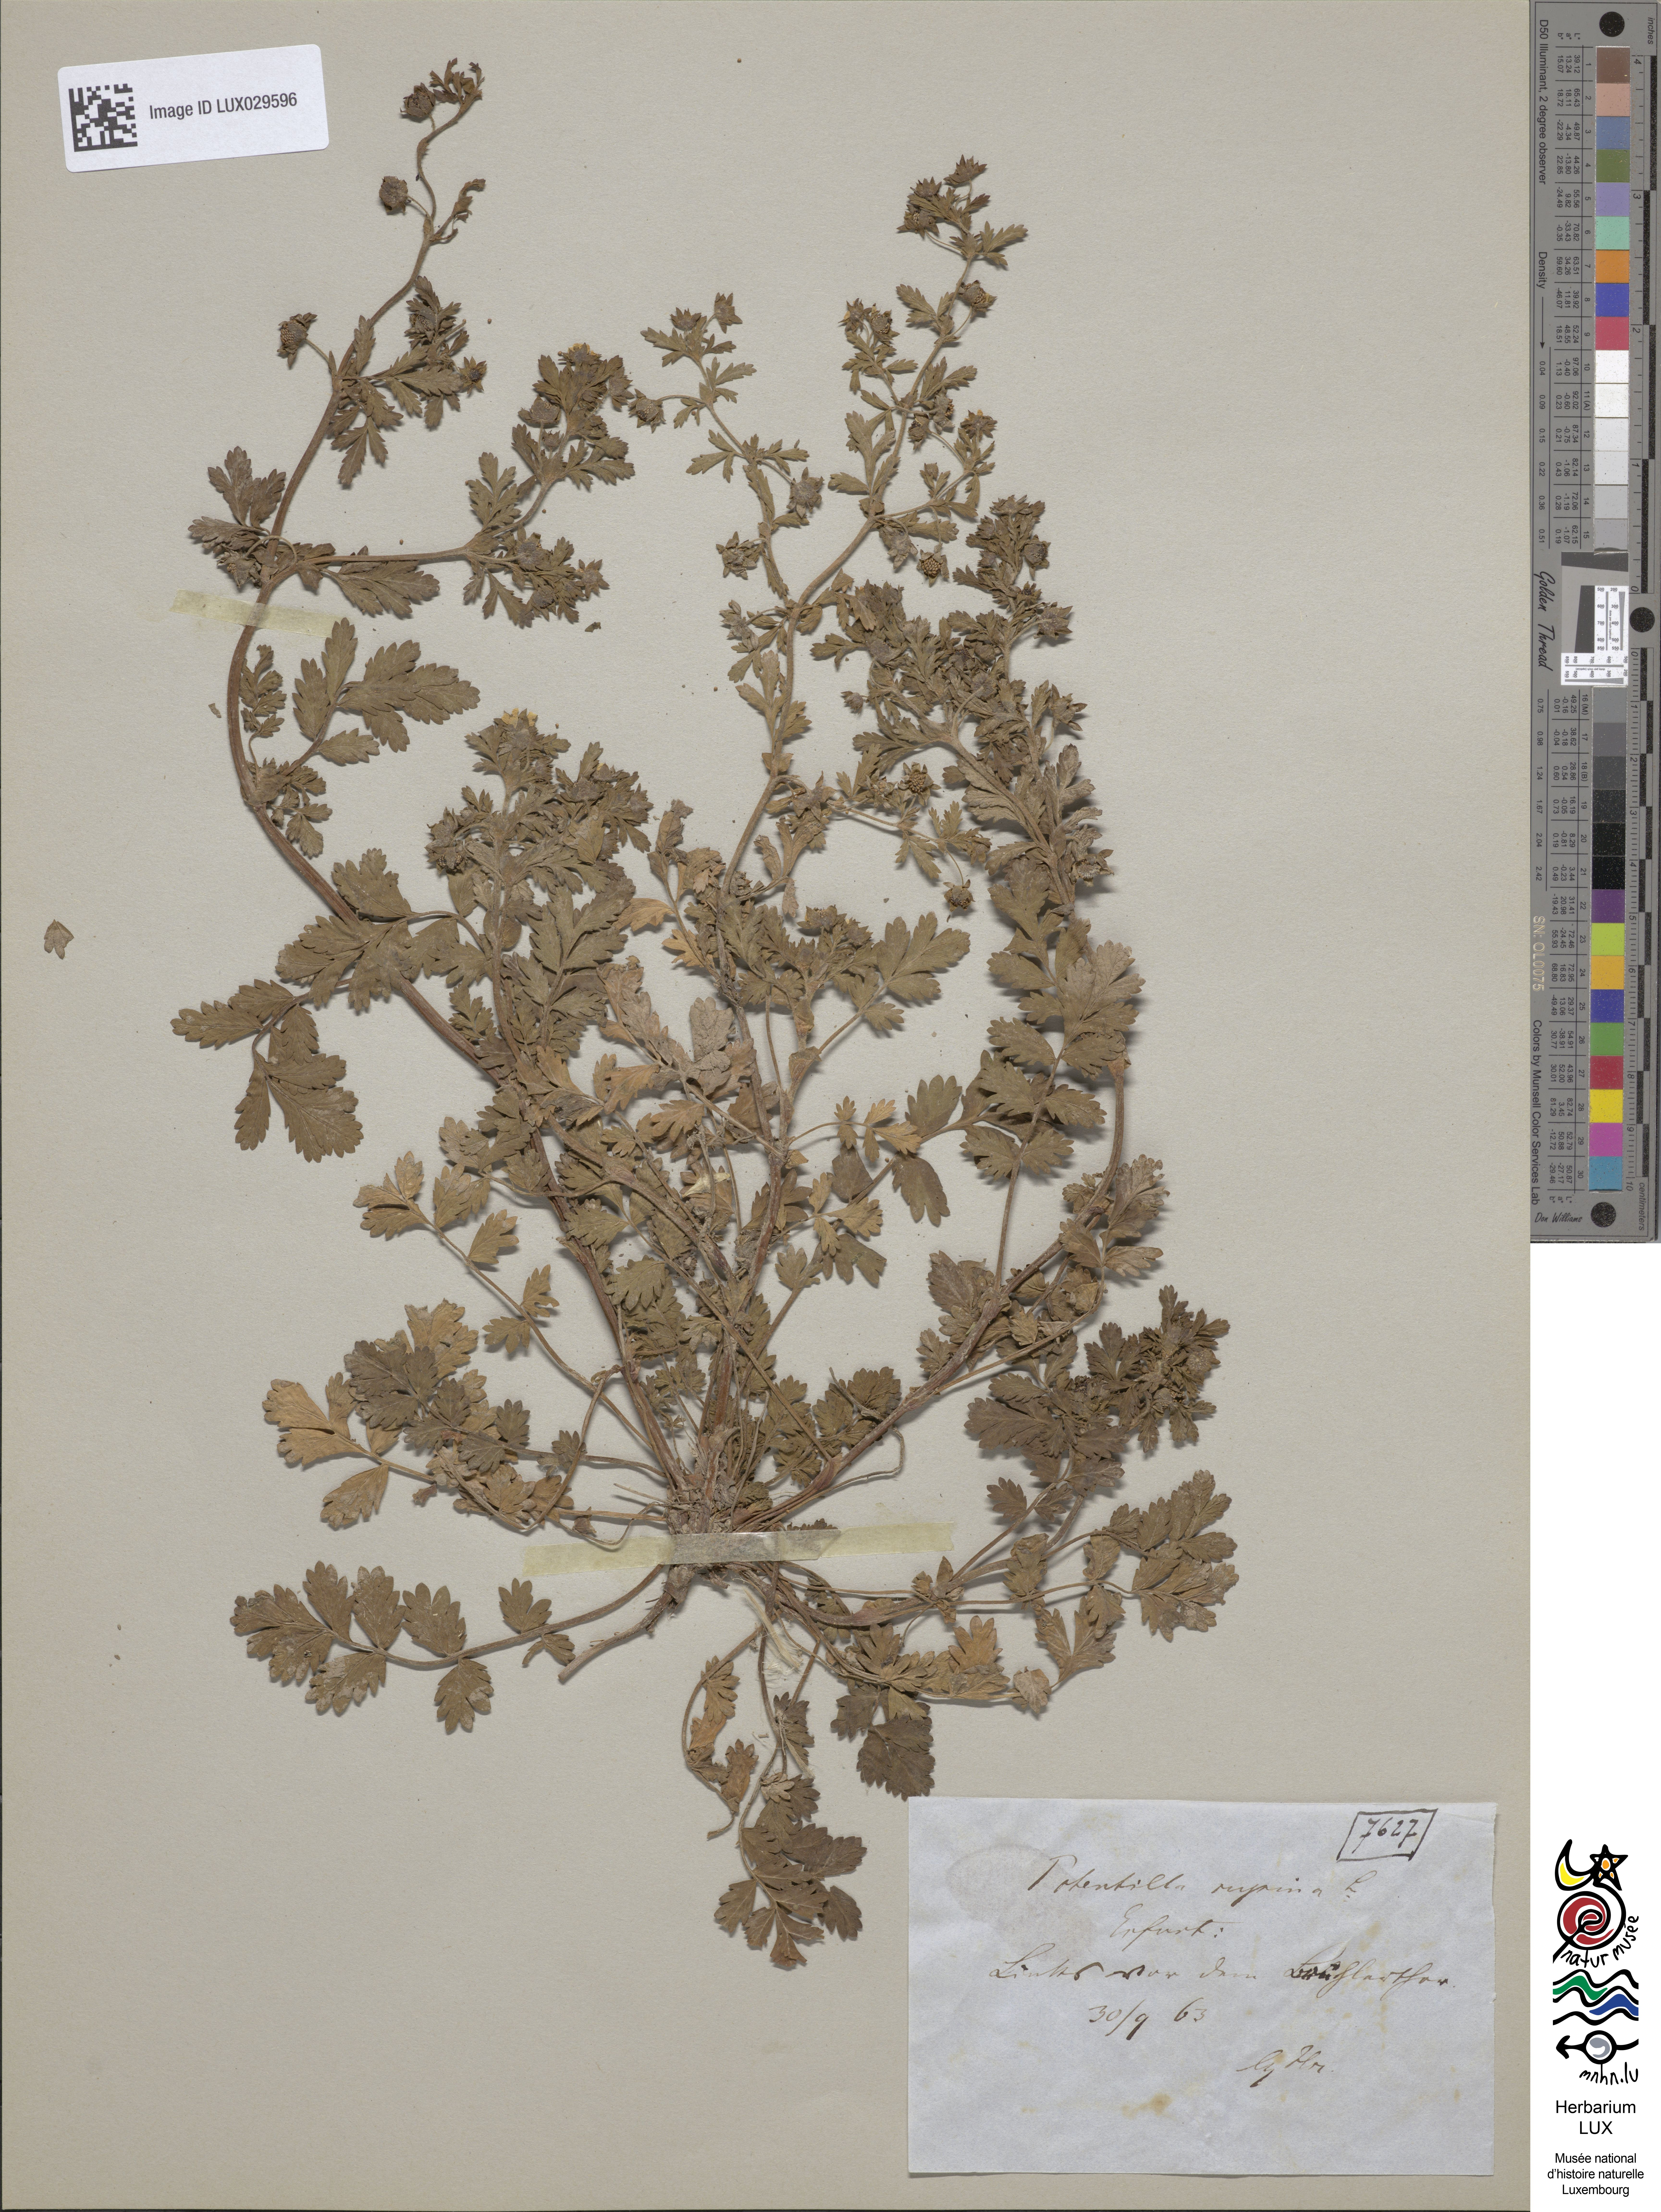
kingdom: Plantae
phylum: Tracheophyta
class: Magnoliopsida
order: Rosales
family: Rosaceae
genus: Potentilla
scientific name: Potentilla supina
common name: Prostrate cinquefoil
